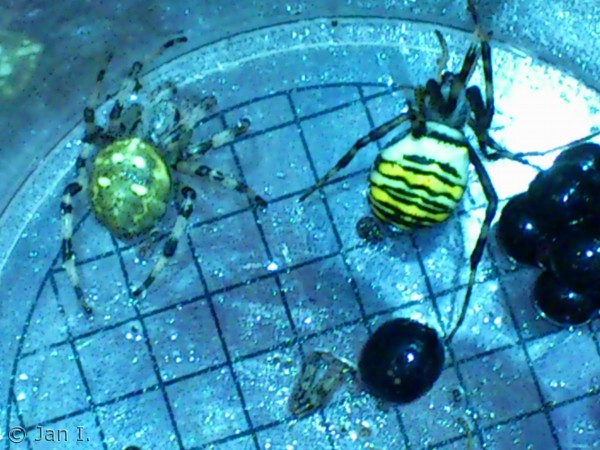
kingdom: Animalia
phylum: Arthropoda
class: Arachnida
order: Araneae
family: Pholcidae
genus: Pholcus
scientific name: Pholcus phalangioides
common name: Mejeredderkop
